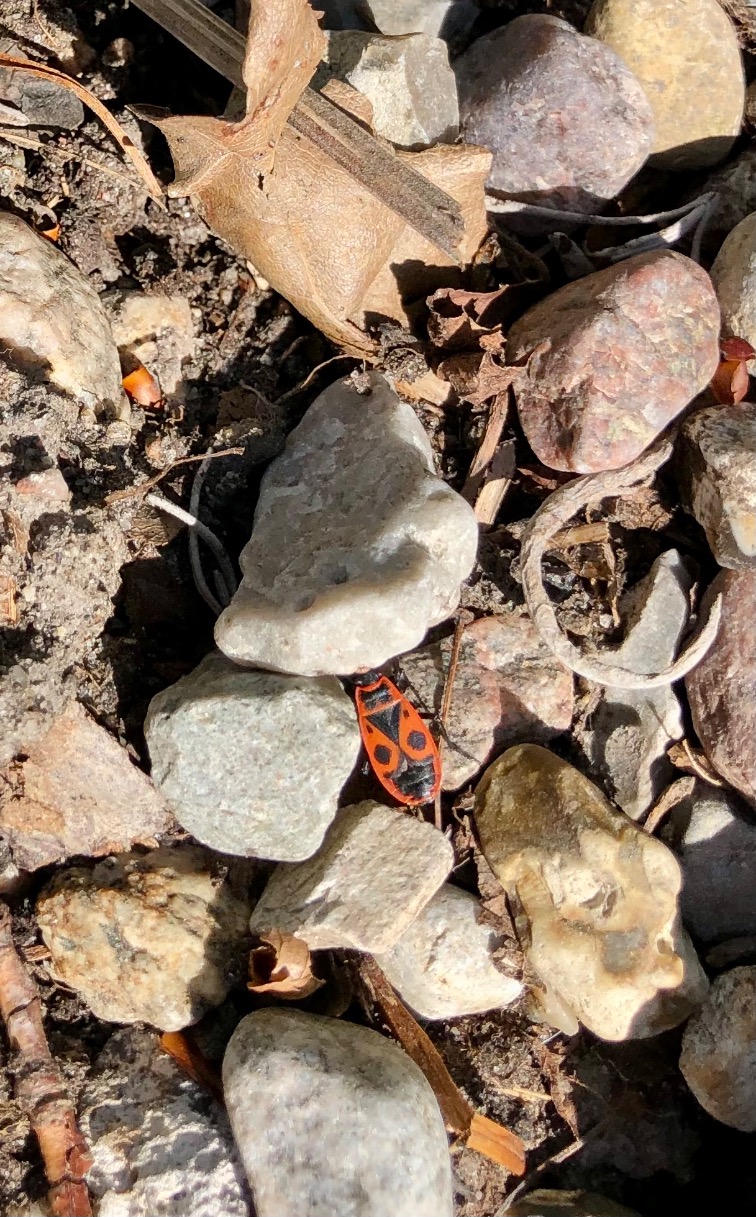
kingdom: Animalia
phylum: Arthropoda
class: Insecta
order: Hemiptera
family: Pyrrhocoridae
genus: Pyrrhocoris
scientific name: Pyrrhocoris apterus
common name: Ildtæge
